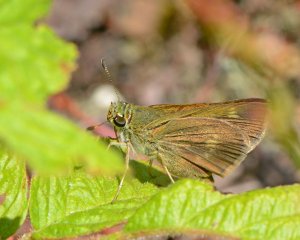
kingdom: Animalia
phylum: Arthropoda
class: Insecta
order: Lepidoptera
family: Hesperiidae
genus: Polites
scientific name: Polites egeremet
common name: Northern Broken-Dash
